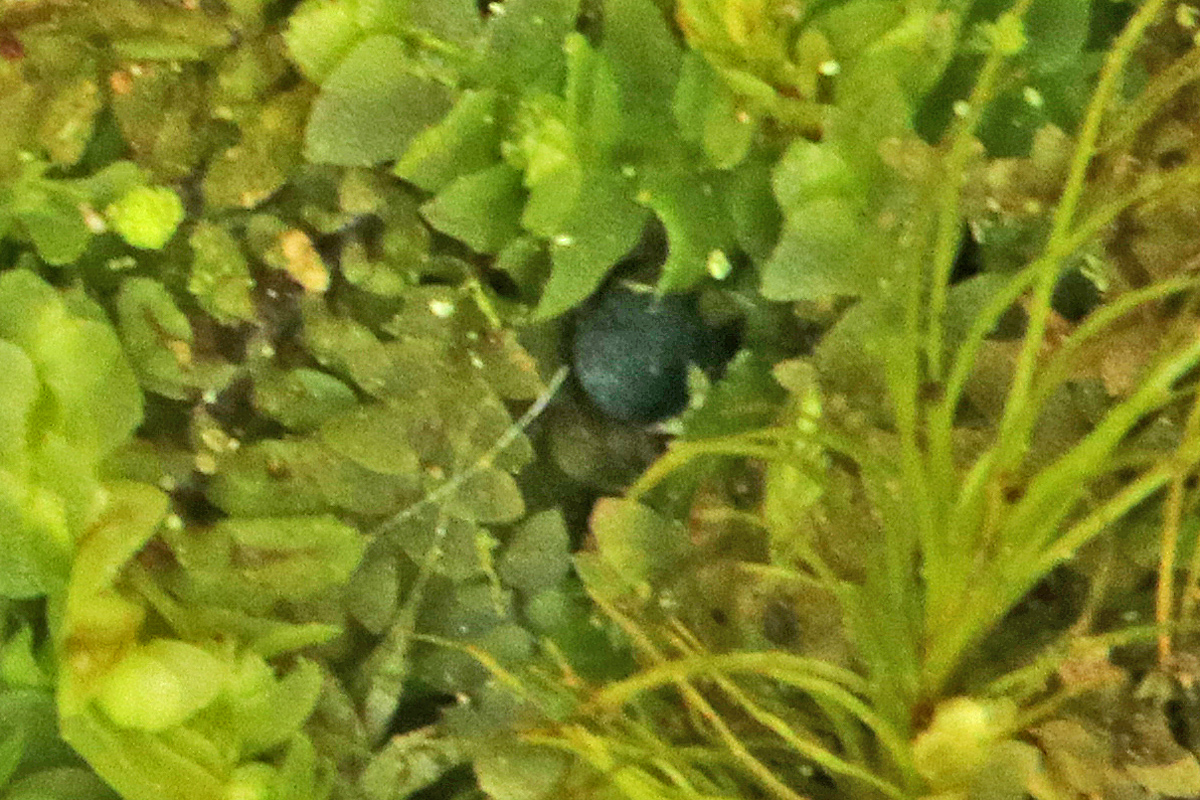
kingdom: Fungi
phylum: Ascomycota
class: Leotiomycetes
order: Leotiales
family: Mniaeciaceae
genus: Mniaecia
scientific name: Mniaecia jungermanniae
